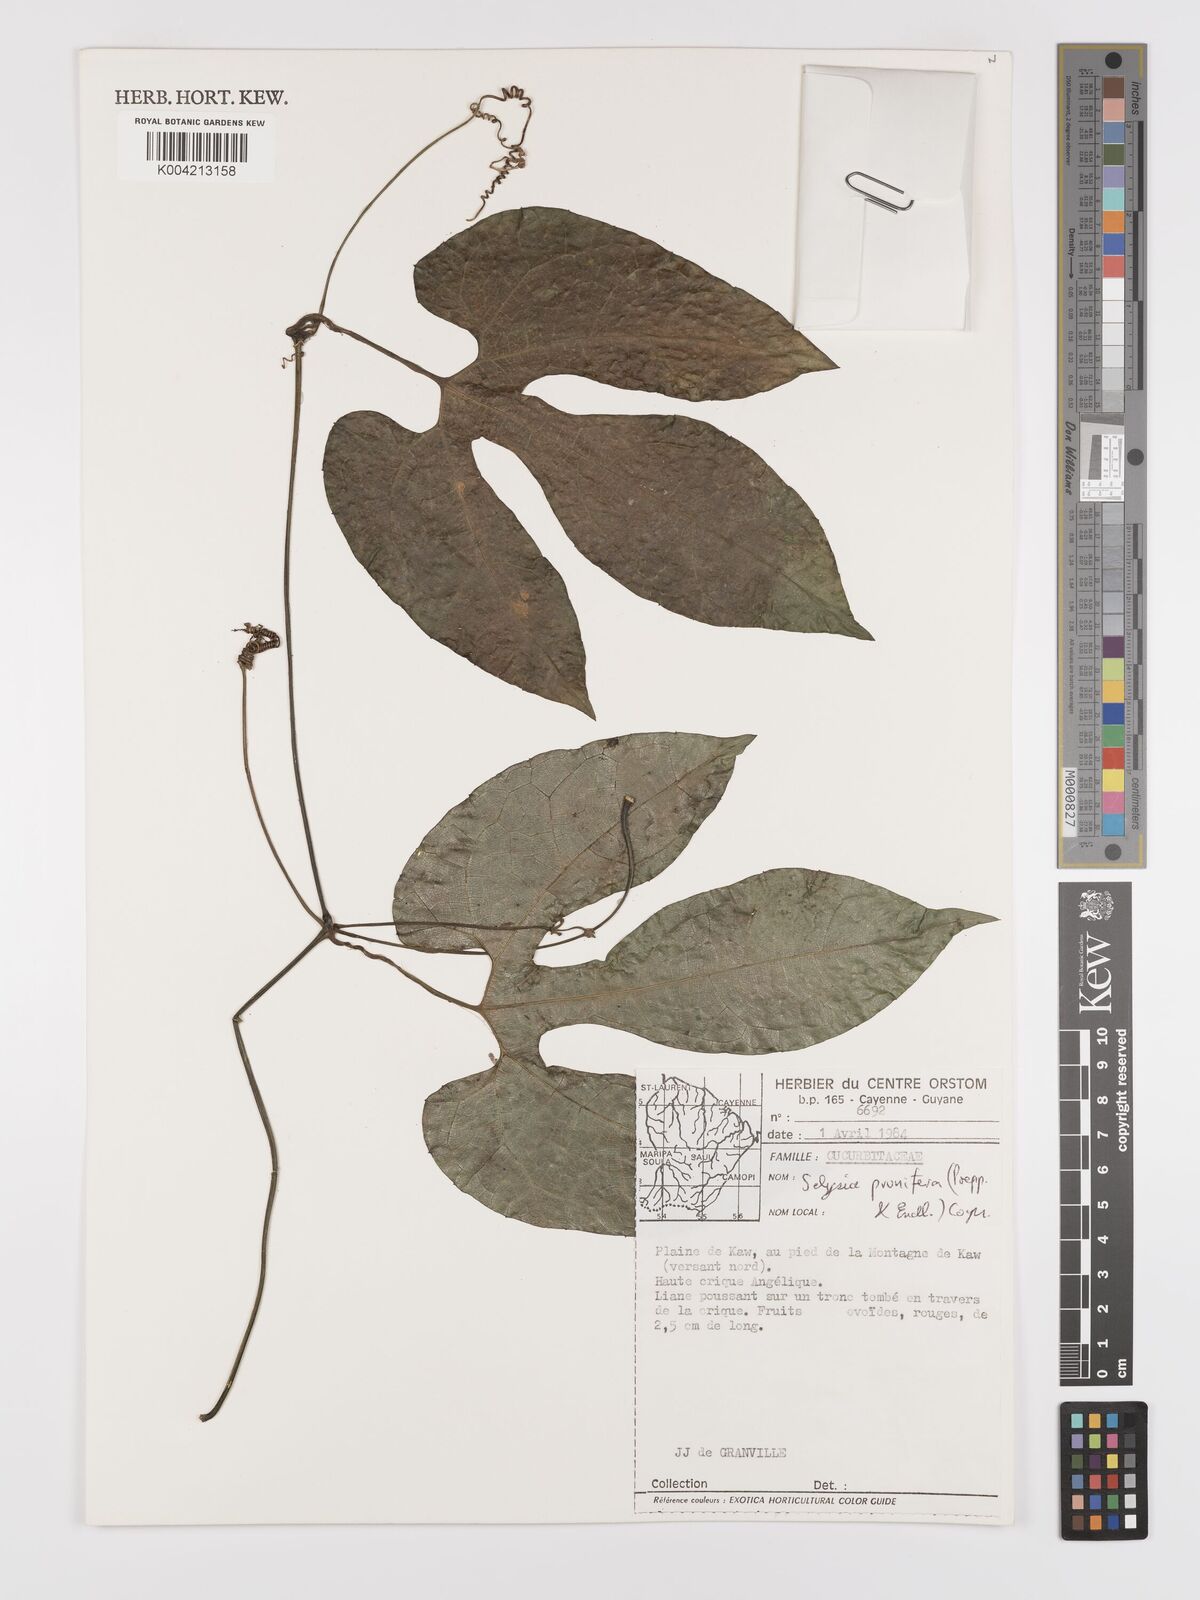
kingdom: Plantae
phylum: Tracheophyta
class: Magnoliopsida
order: Cucurbitales
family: Cucurbitaceae
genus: Cayaponia
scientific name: Cayaponia prunifera
